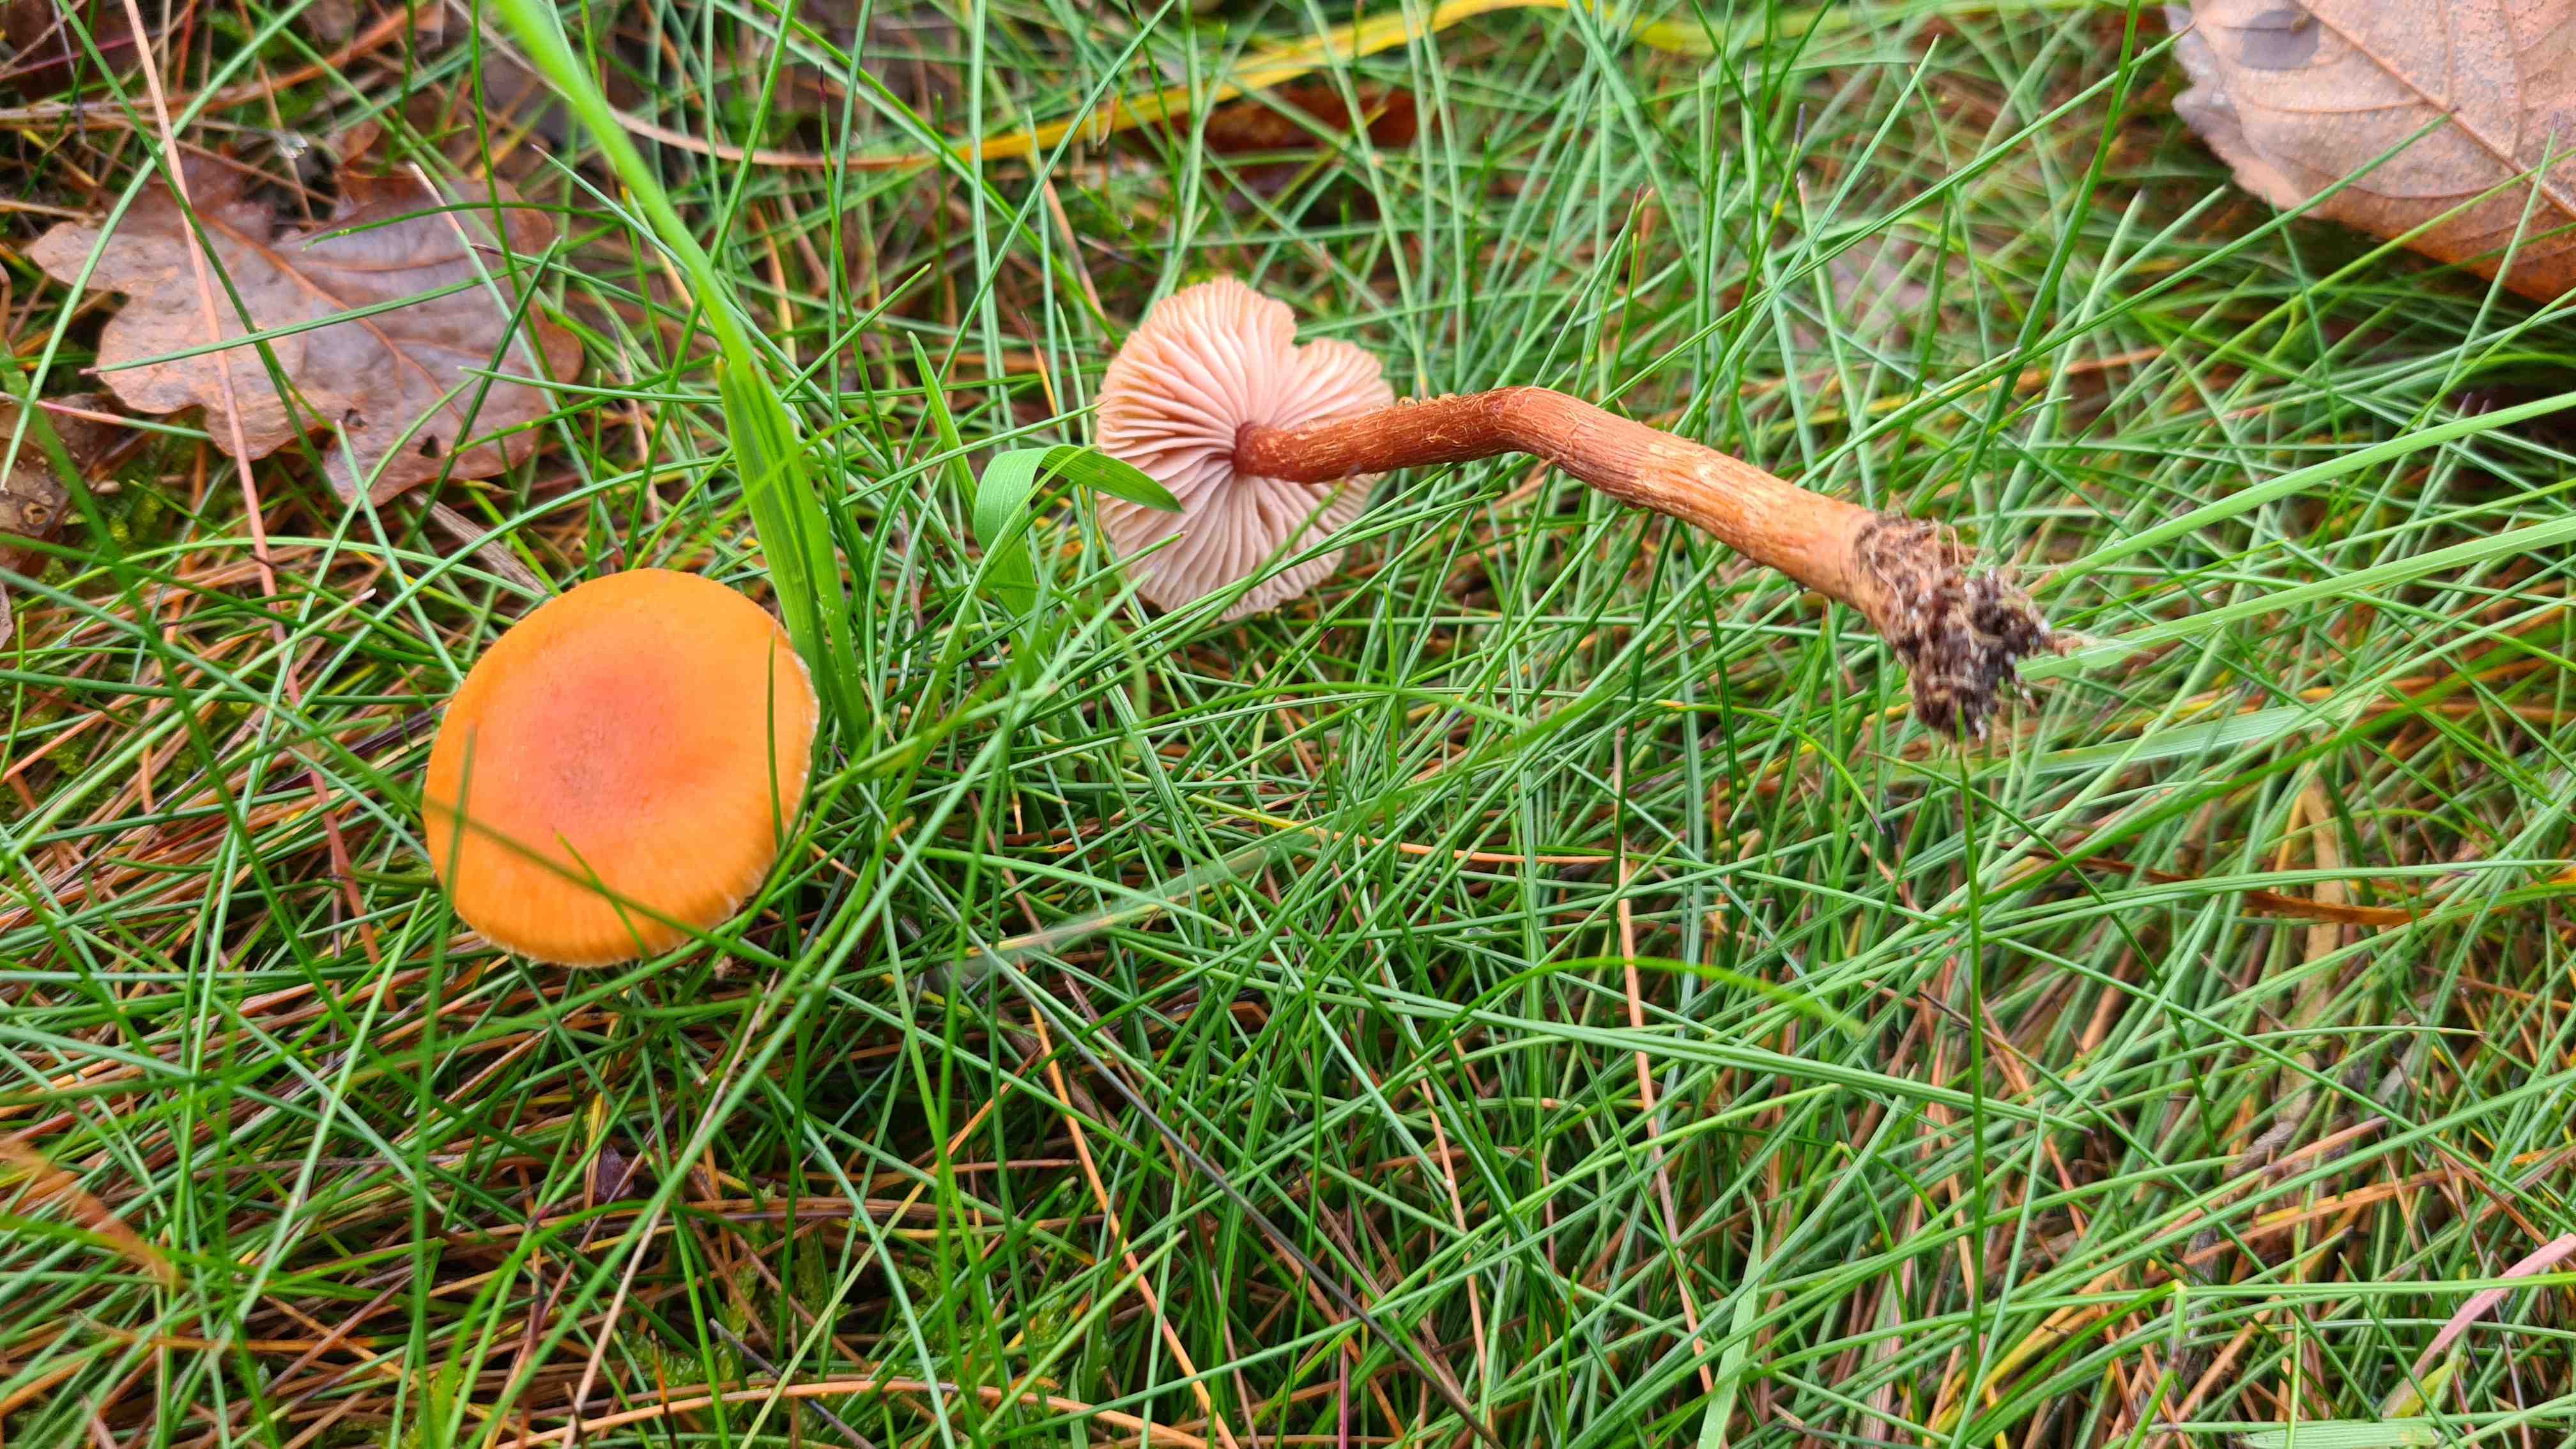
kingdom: Fungi
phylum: Basidiomycota
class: Agaricomycetes
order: Agaricales
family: Hydnangiaceae
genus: Laccaria
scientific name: Laccaria proxima
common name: stor ametysthat
